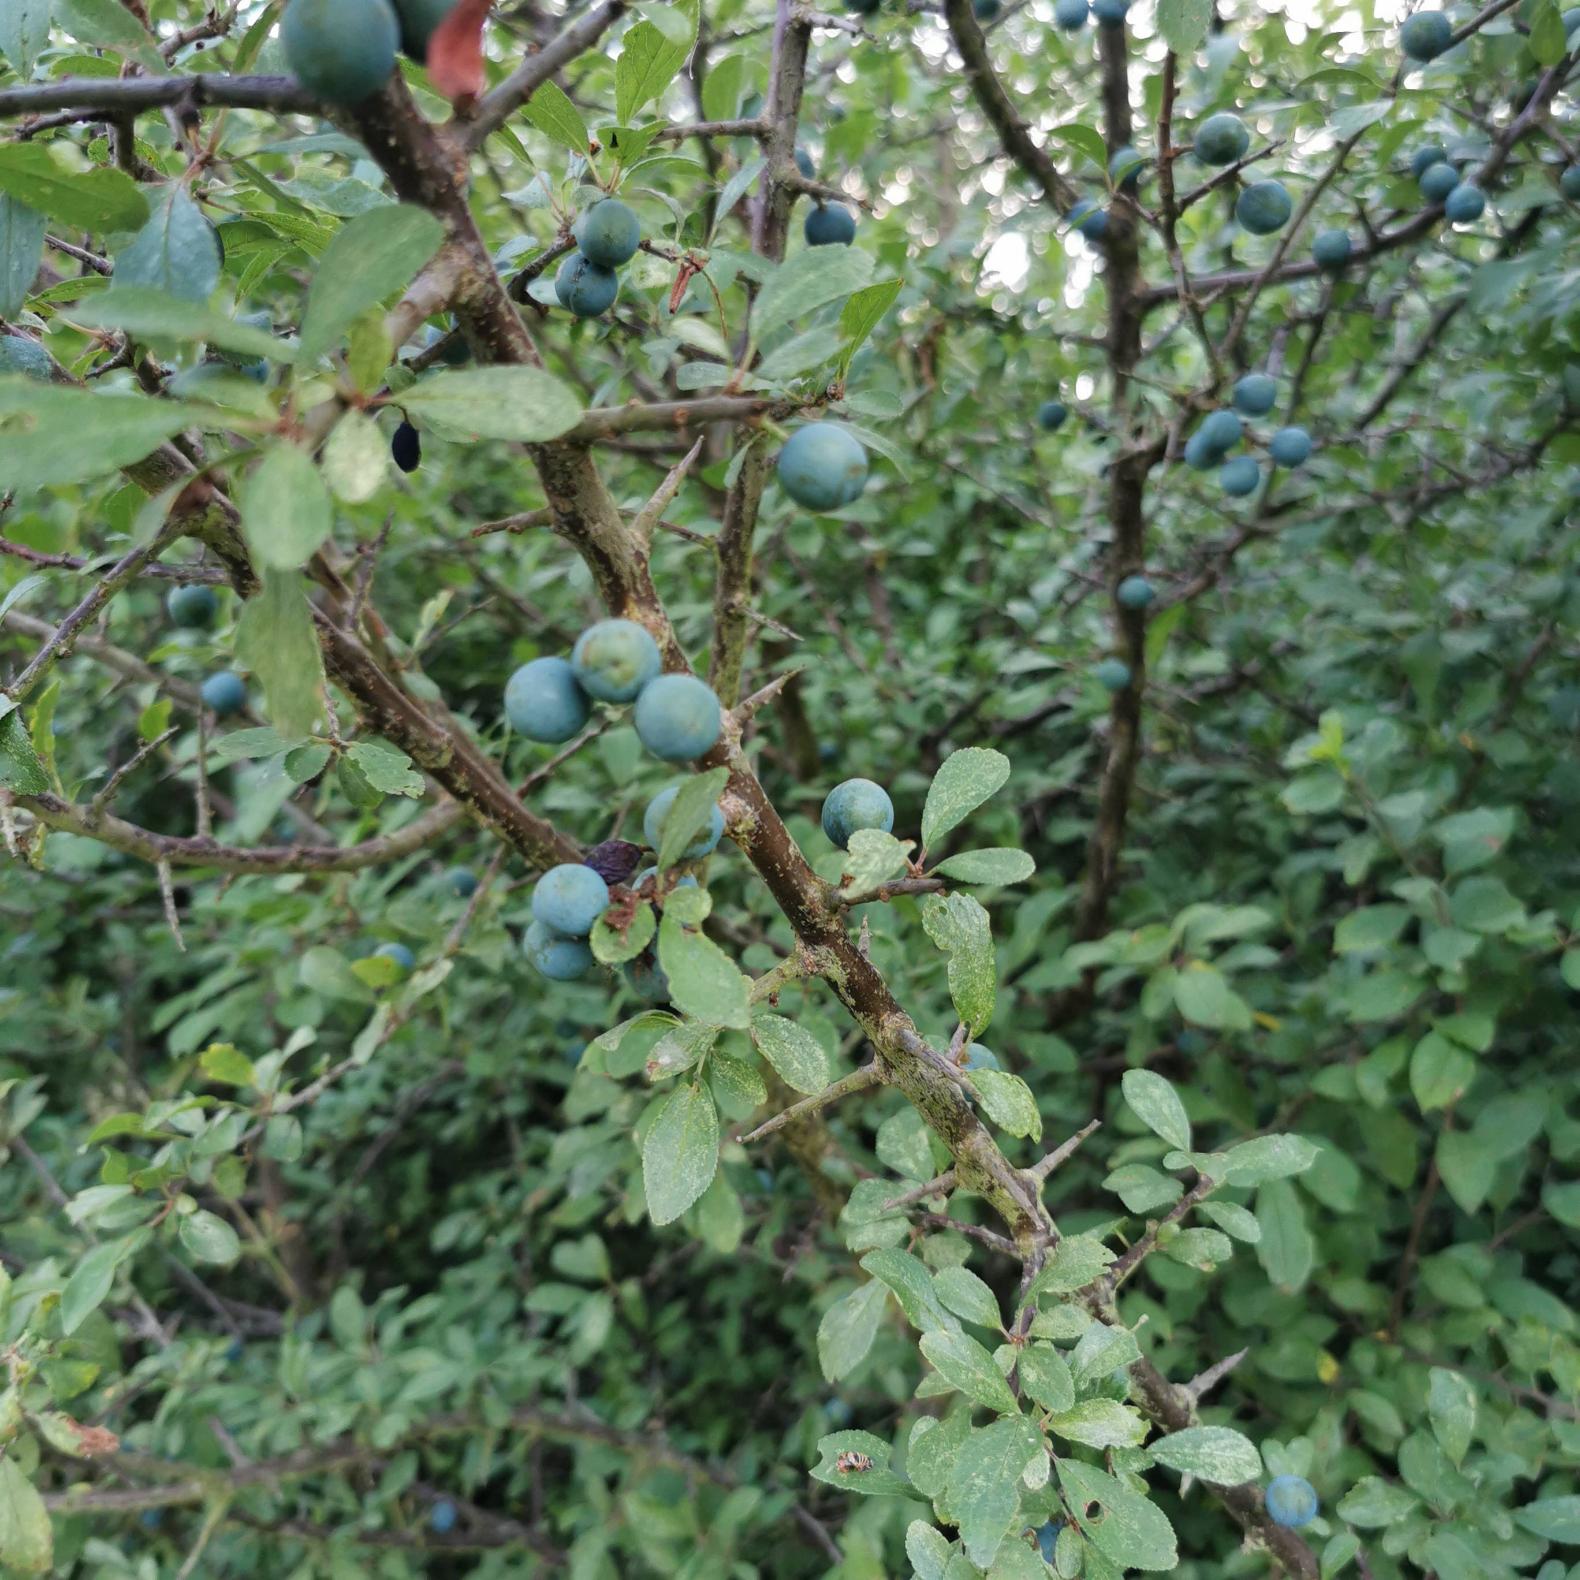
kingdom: Plantae
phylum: Tracheophyta
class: Magnoliopsida
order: Rosales
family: Rosaceae
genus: Prunus
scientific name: Prunus spinosa
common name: Slåen
